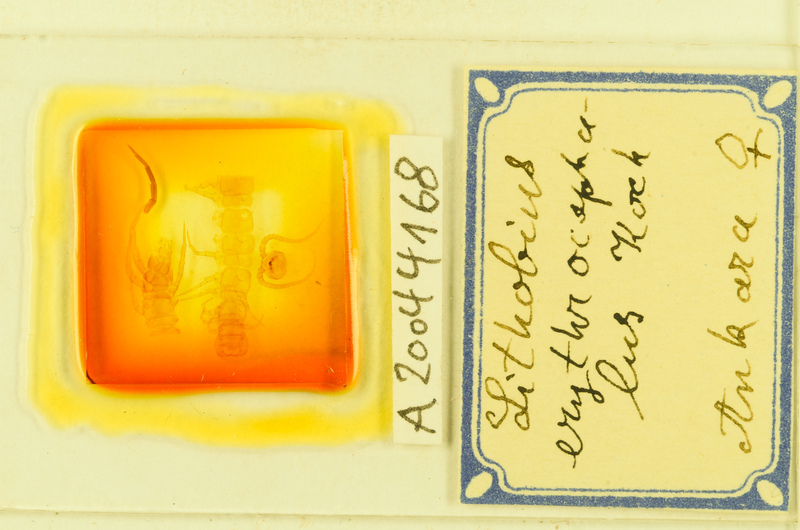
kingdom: Animalia
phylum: Arthropoda
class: Chilopoda
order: Lithobiomorpha
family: Lithobiidae
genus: Lithobius
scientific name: Lithobius erythrocephalus
